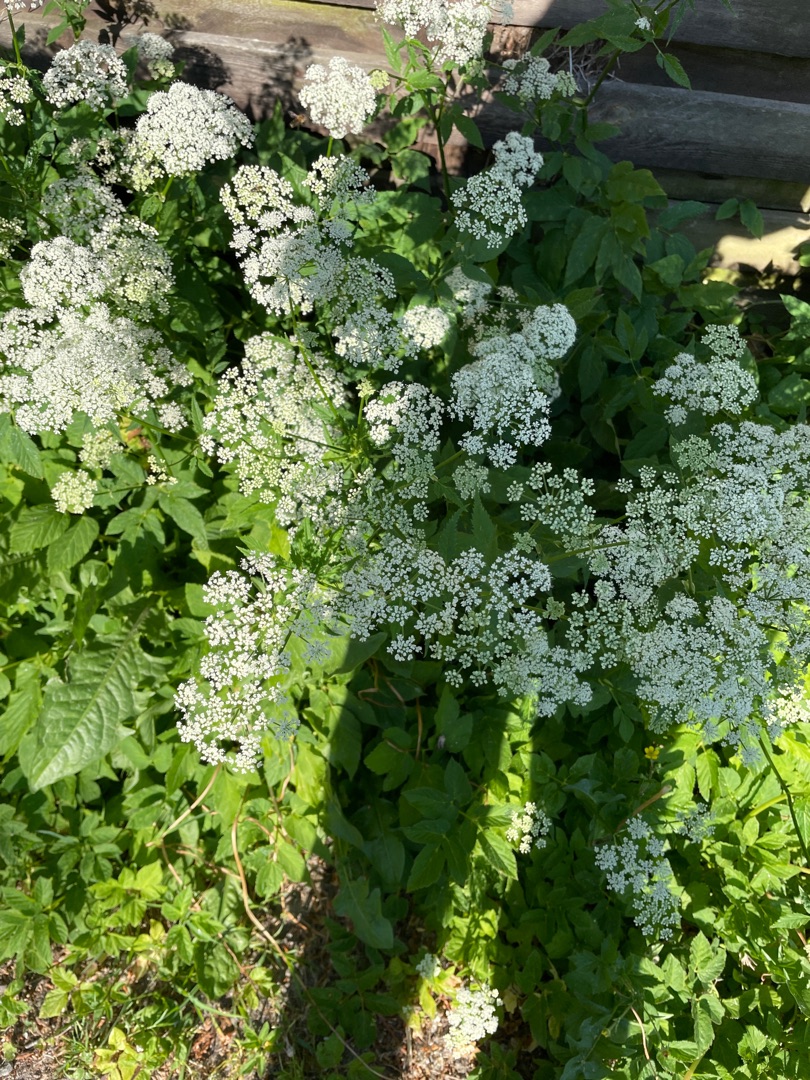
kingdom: Plantae
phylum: Tracheophyta
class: Magnoliopsida
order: Apiales
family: Apiaceae
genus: Aegopodium
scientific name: Aegopodium podagraria
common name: Skvalderkål
